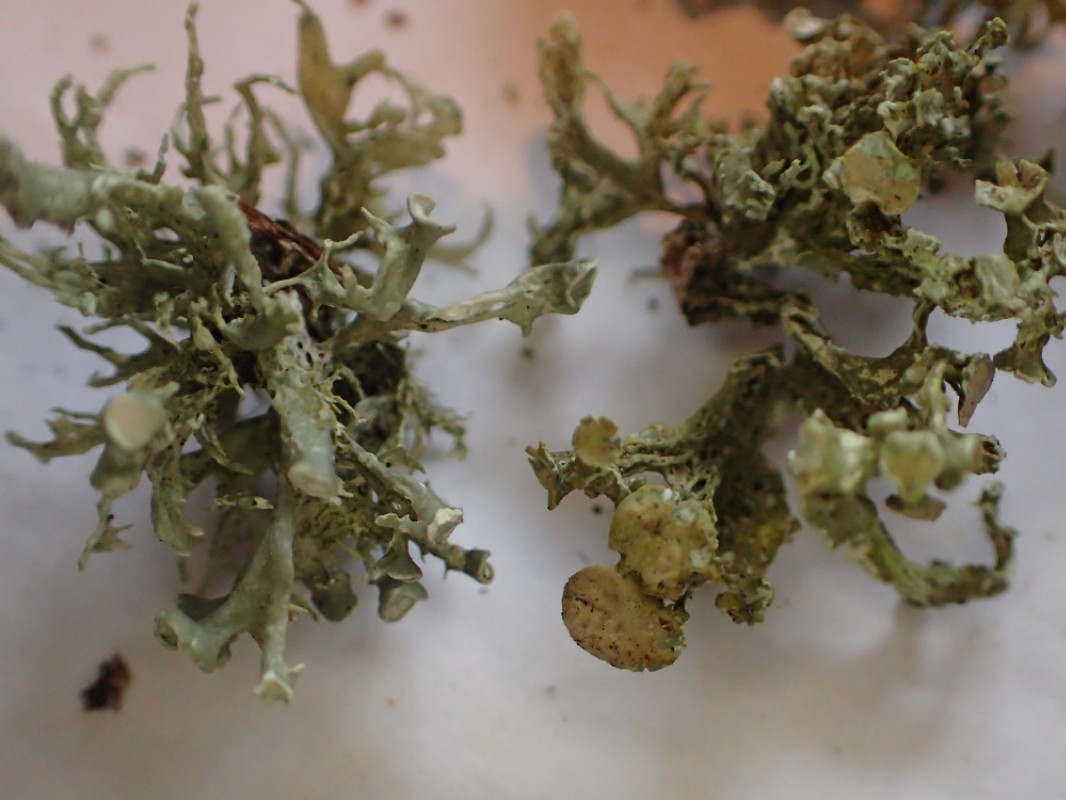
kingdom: Fungi
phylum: Ascomycota
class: Lecanoromycetes
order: Lecanorales
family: Ramalinaceae
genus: Ramalina
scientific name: Ramalina fastigiata
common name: tue-grenlav
